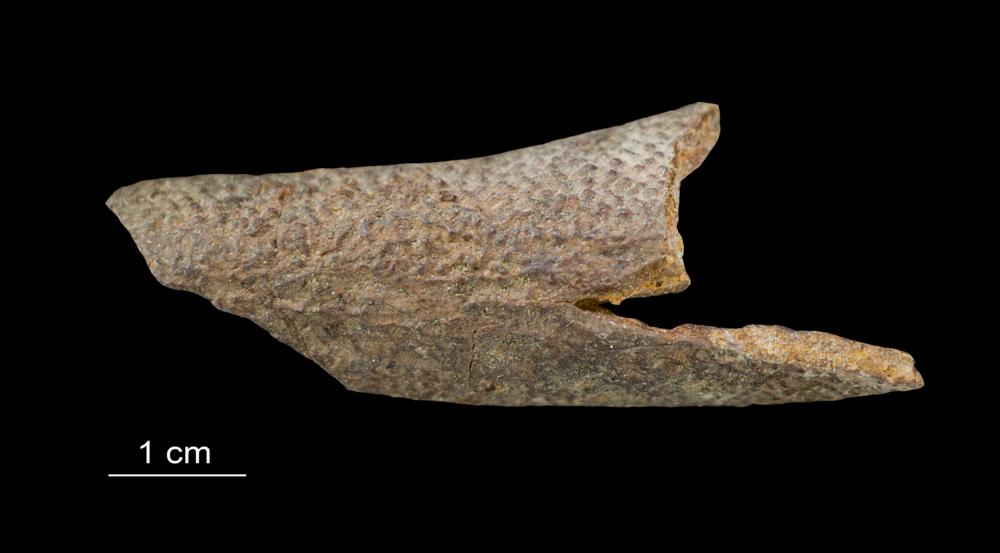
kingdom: Animalia
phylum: Chordata
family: Asterolepididae
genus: Asterolepis
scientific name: Asterolepis ornata
